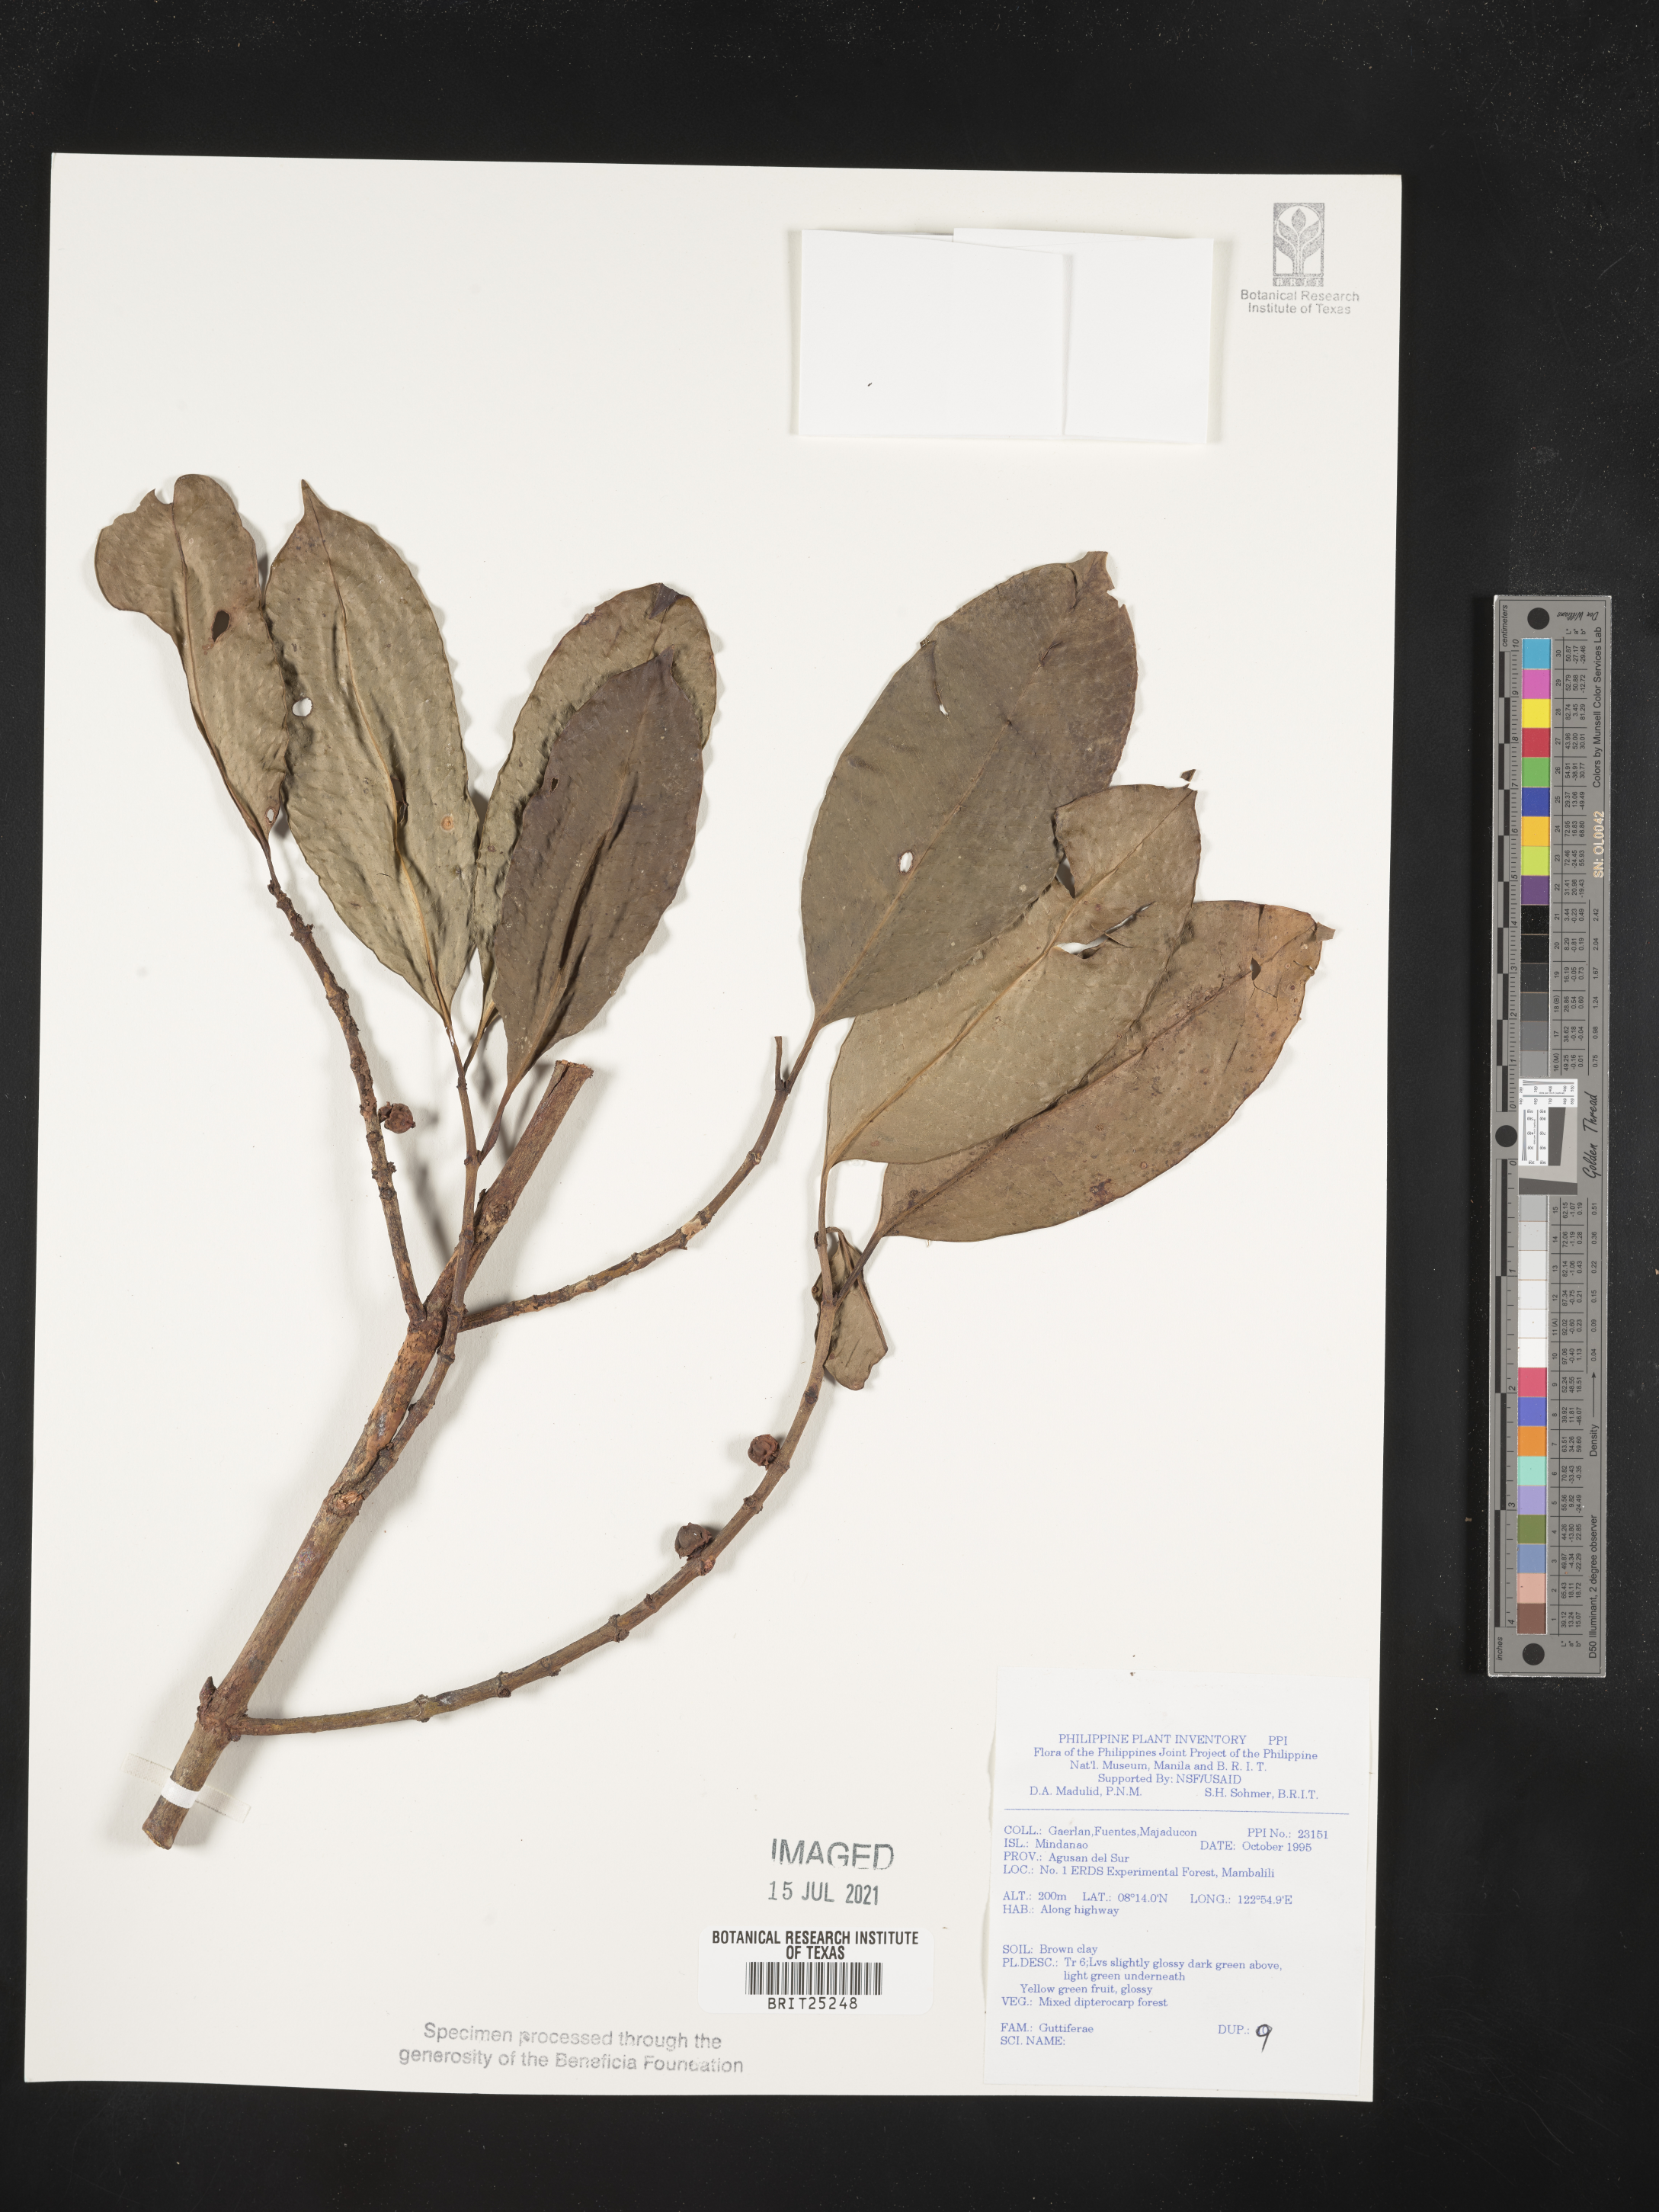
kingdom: Plantae
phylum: Tracheophyta
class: Magnoliopsida
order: Malpighiales
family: Hypericaceae
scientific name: Hypericaceae
